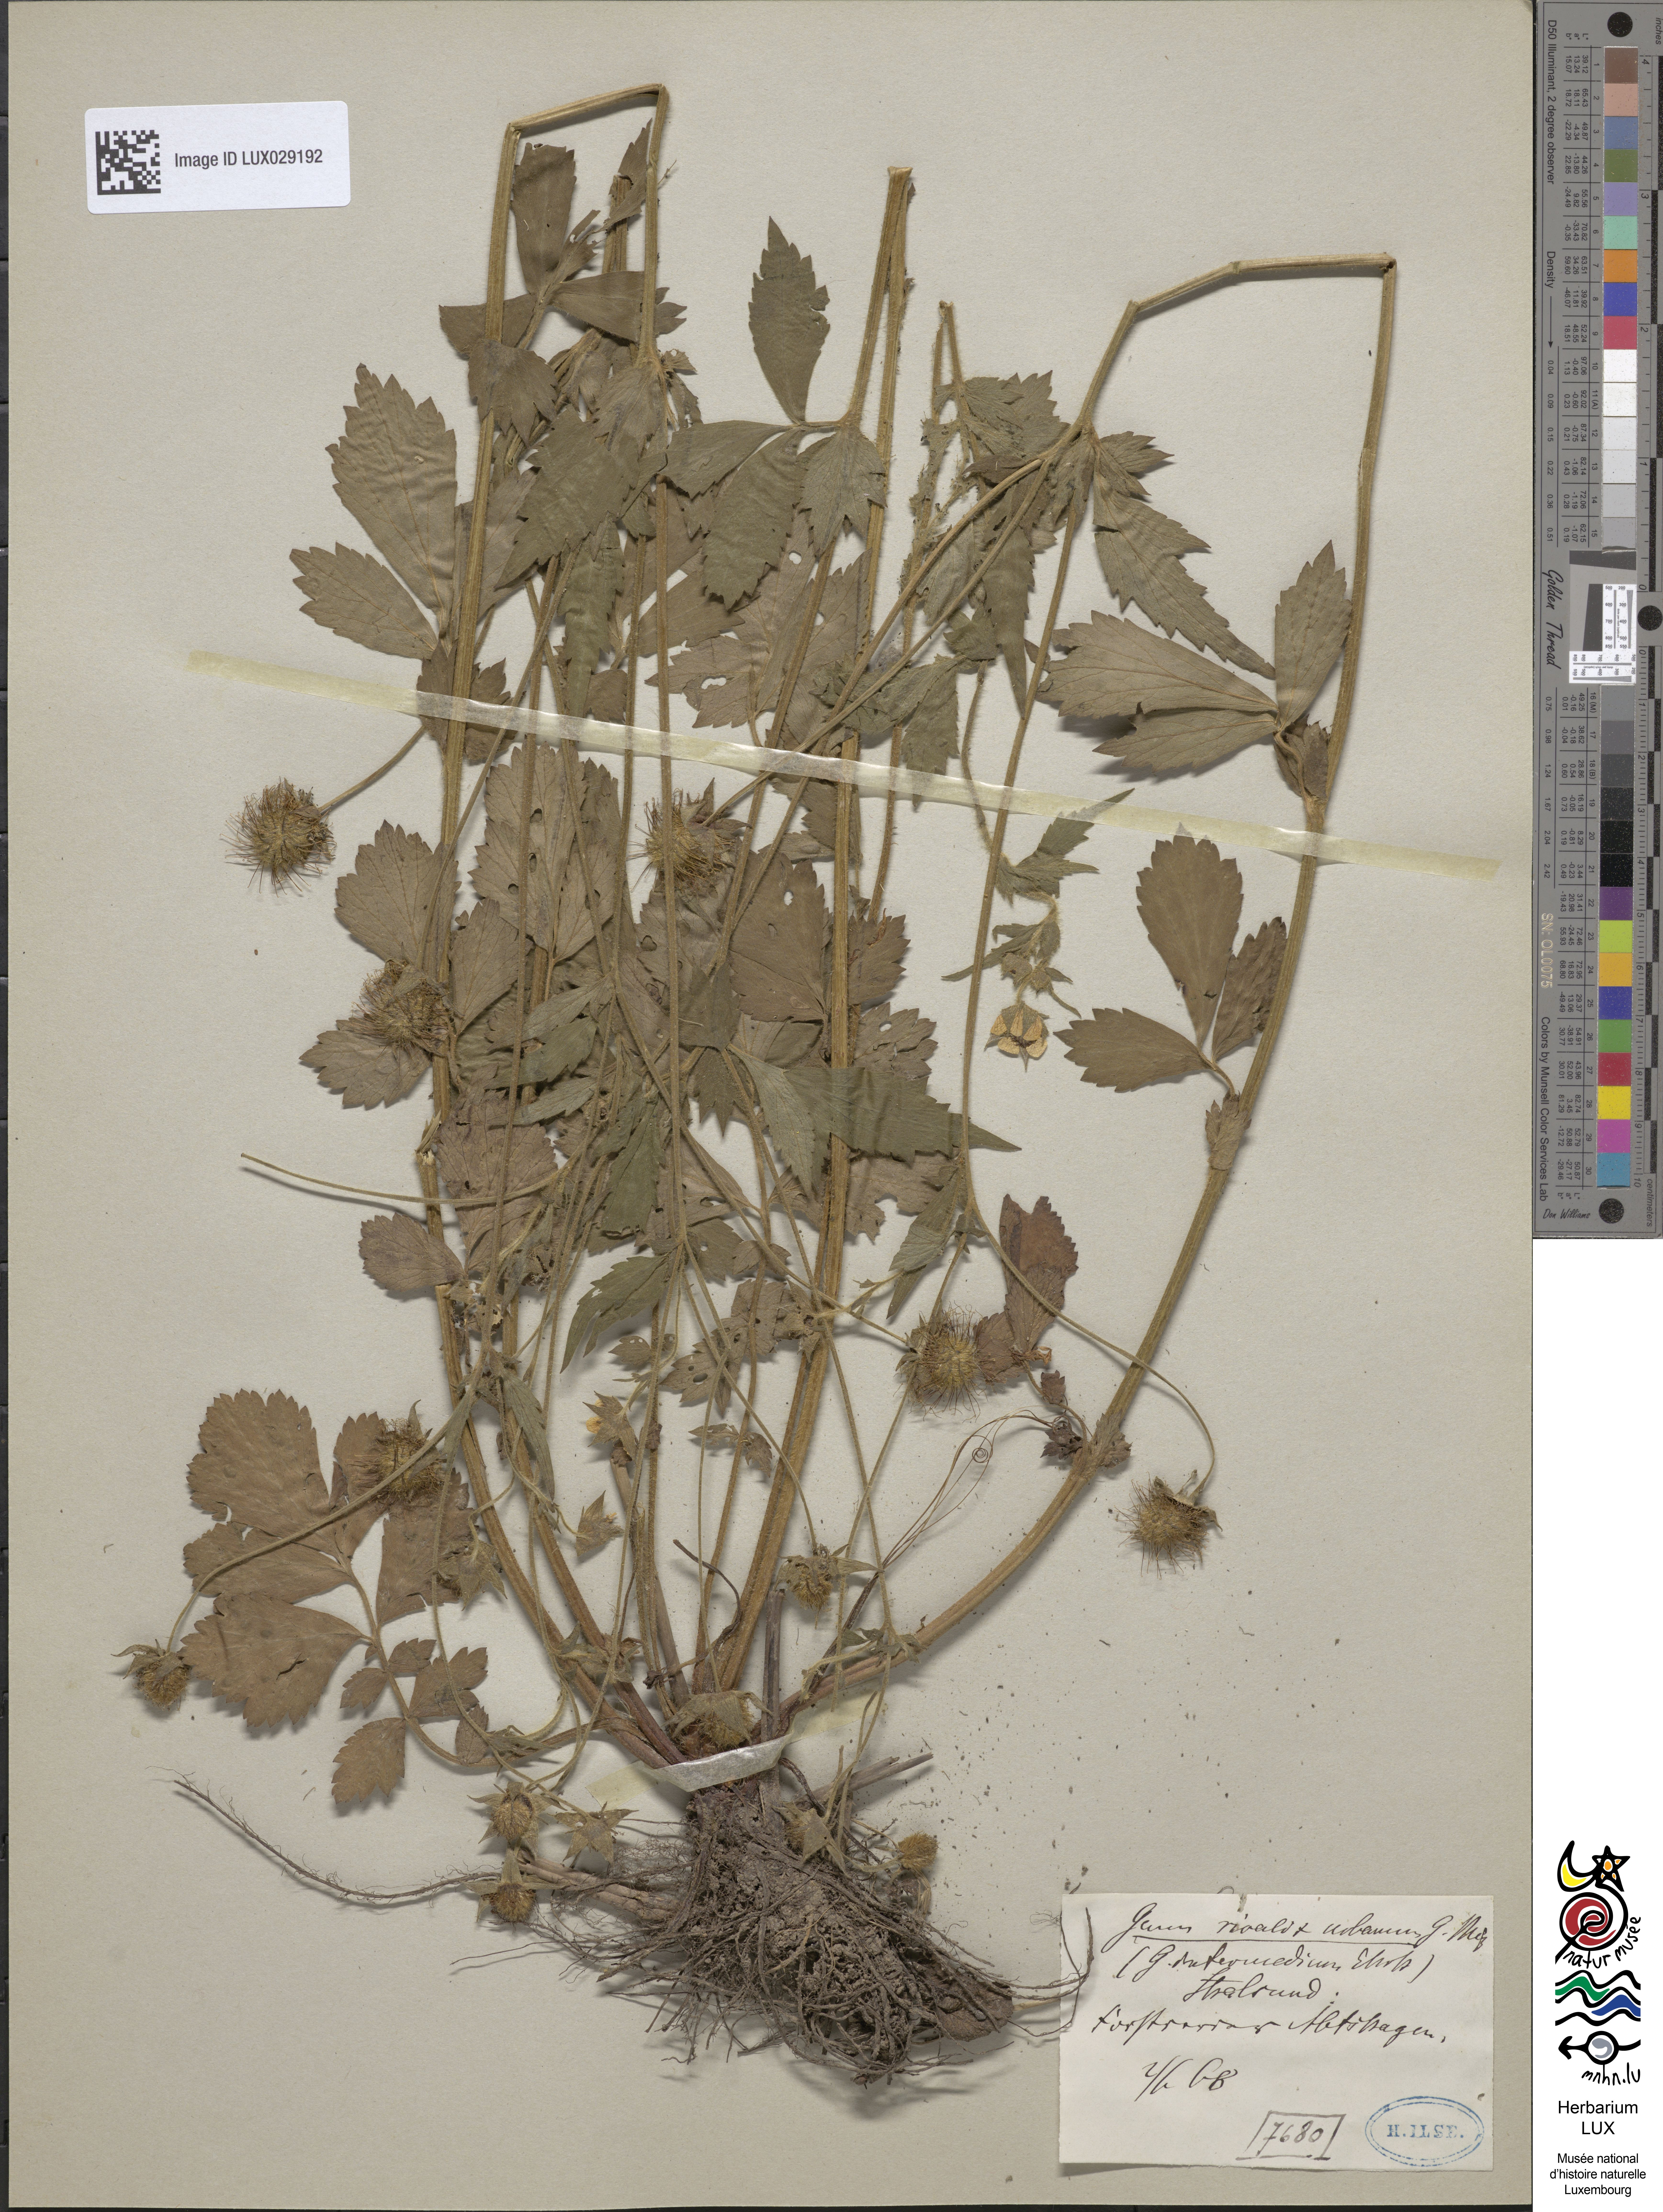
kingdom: Plantae
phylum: Tracheophyta
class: Magnoliopsida
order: Rosales
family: Rosaceae
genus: Geum
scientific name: Geum intermedium
